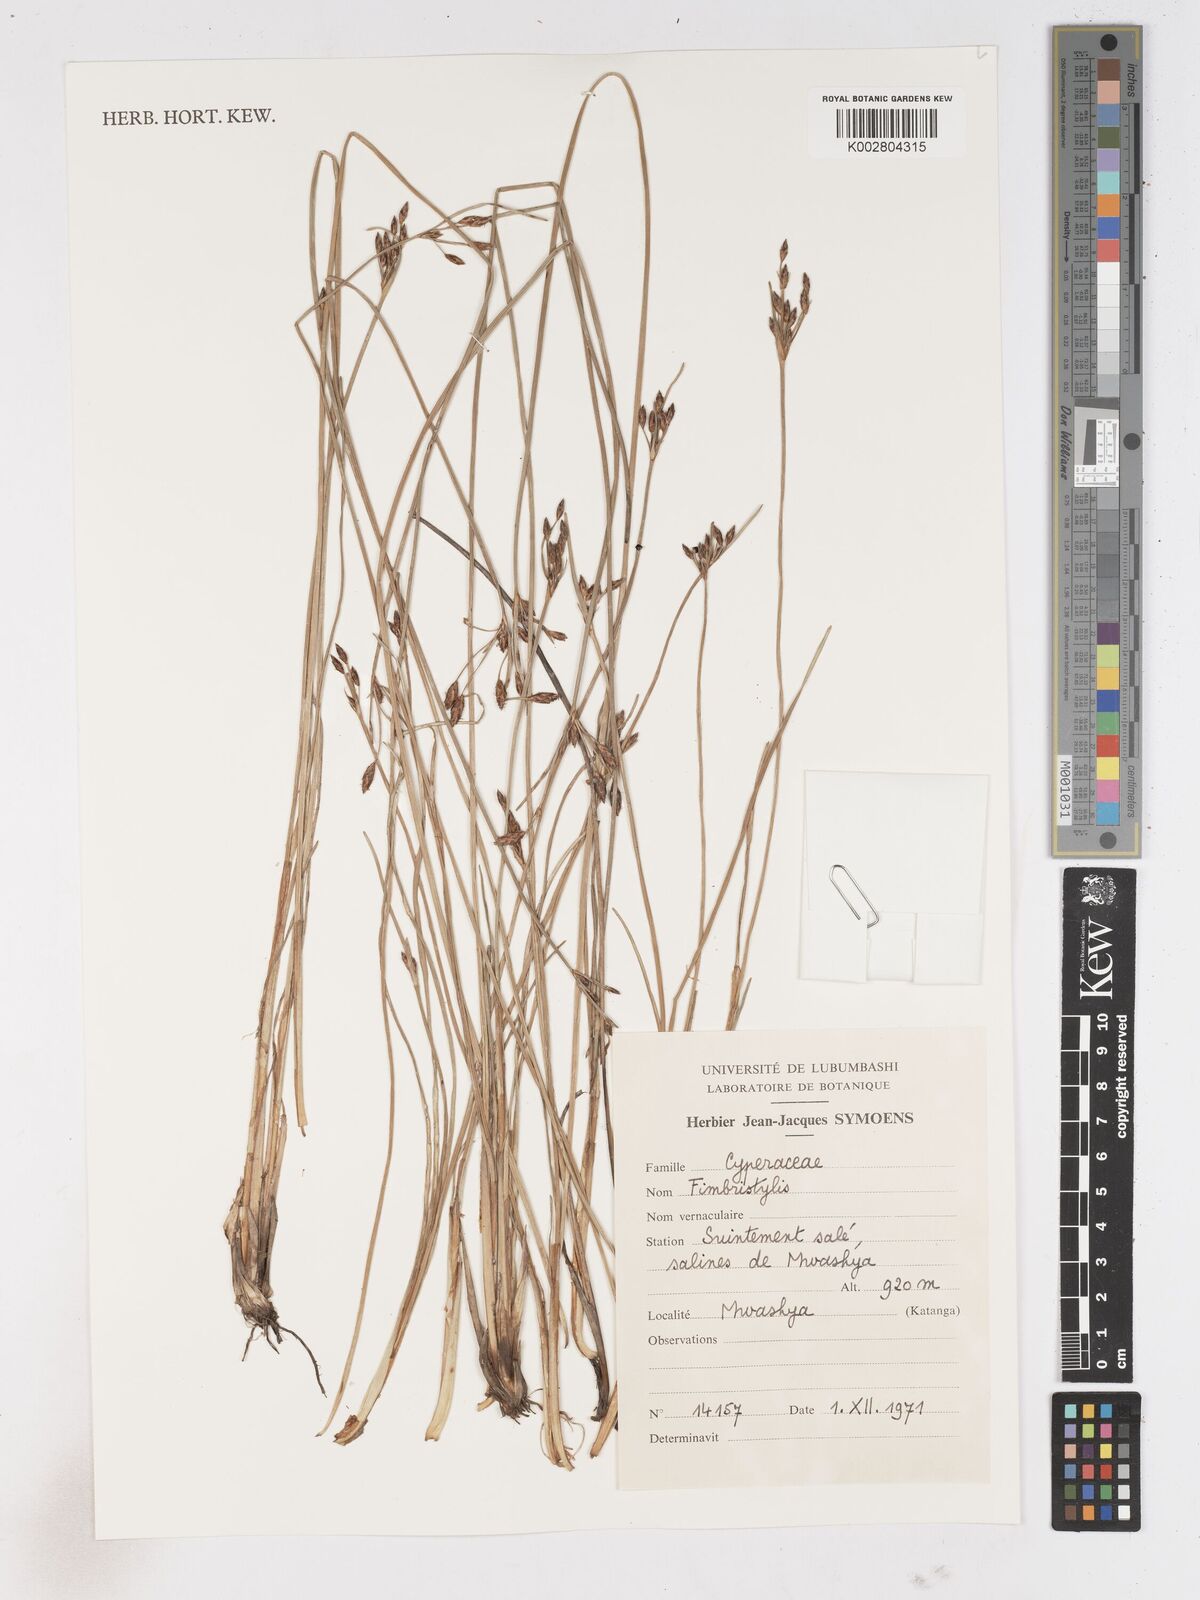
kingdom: Plantae
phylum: Tracheophyta
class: Liliopsida
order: Poales
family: Cyperaceae
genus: Fimbristylis
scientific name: Fimbristylis
